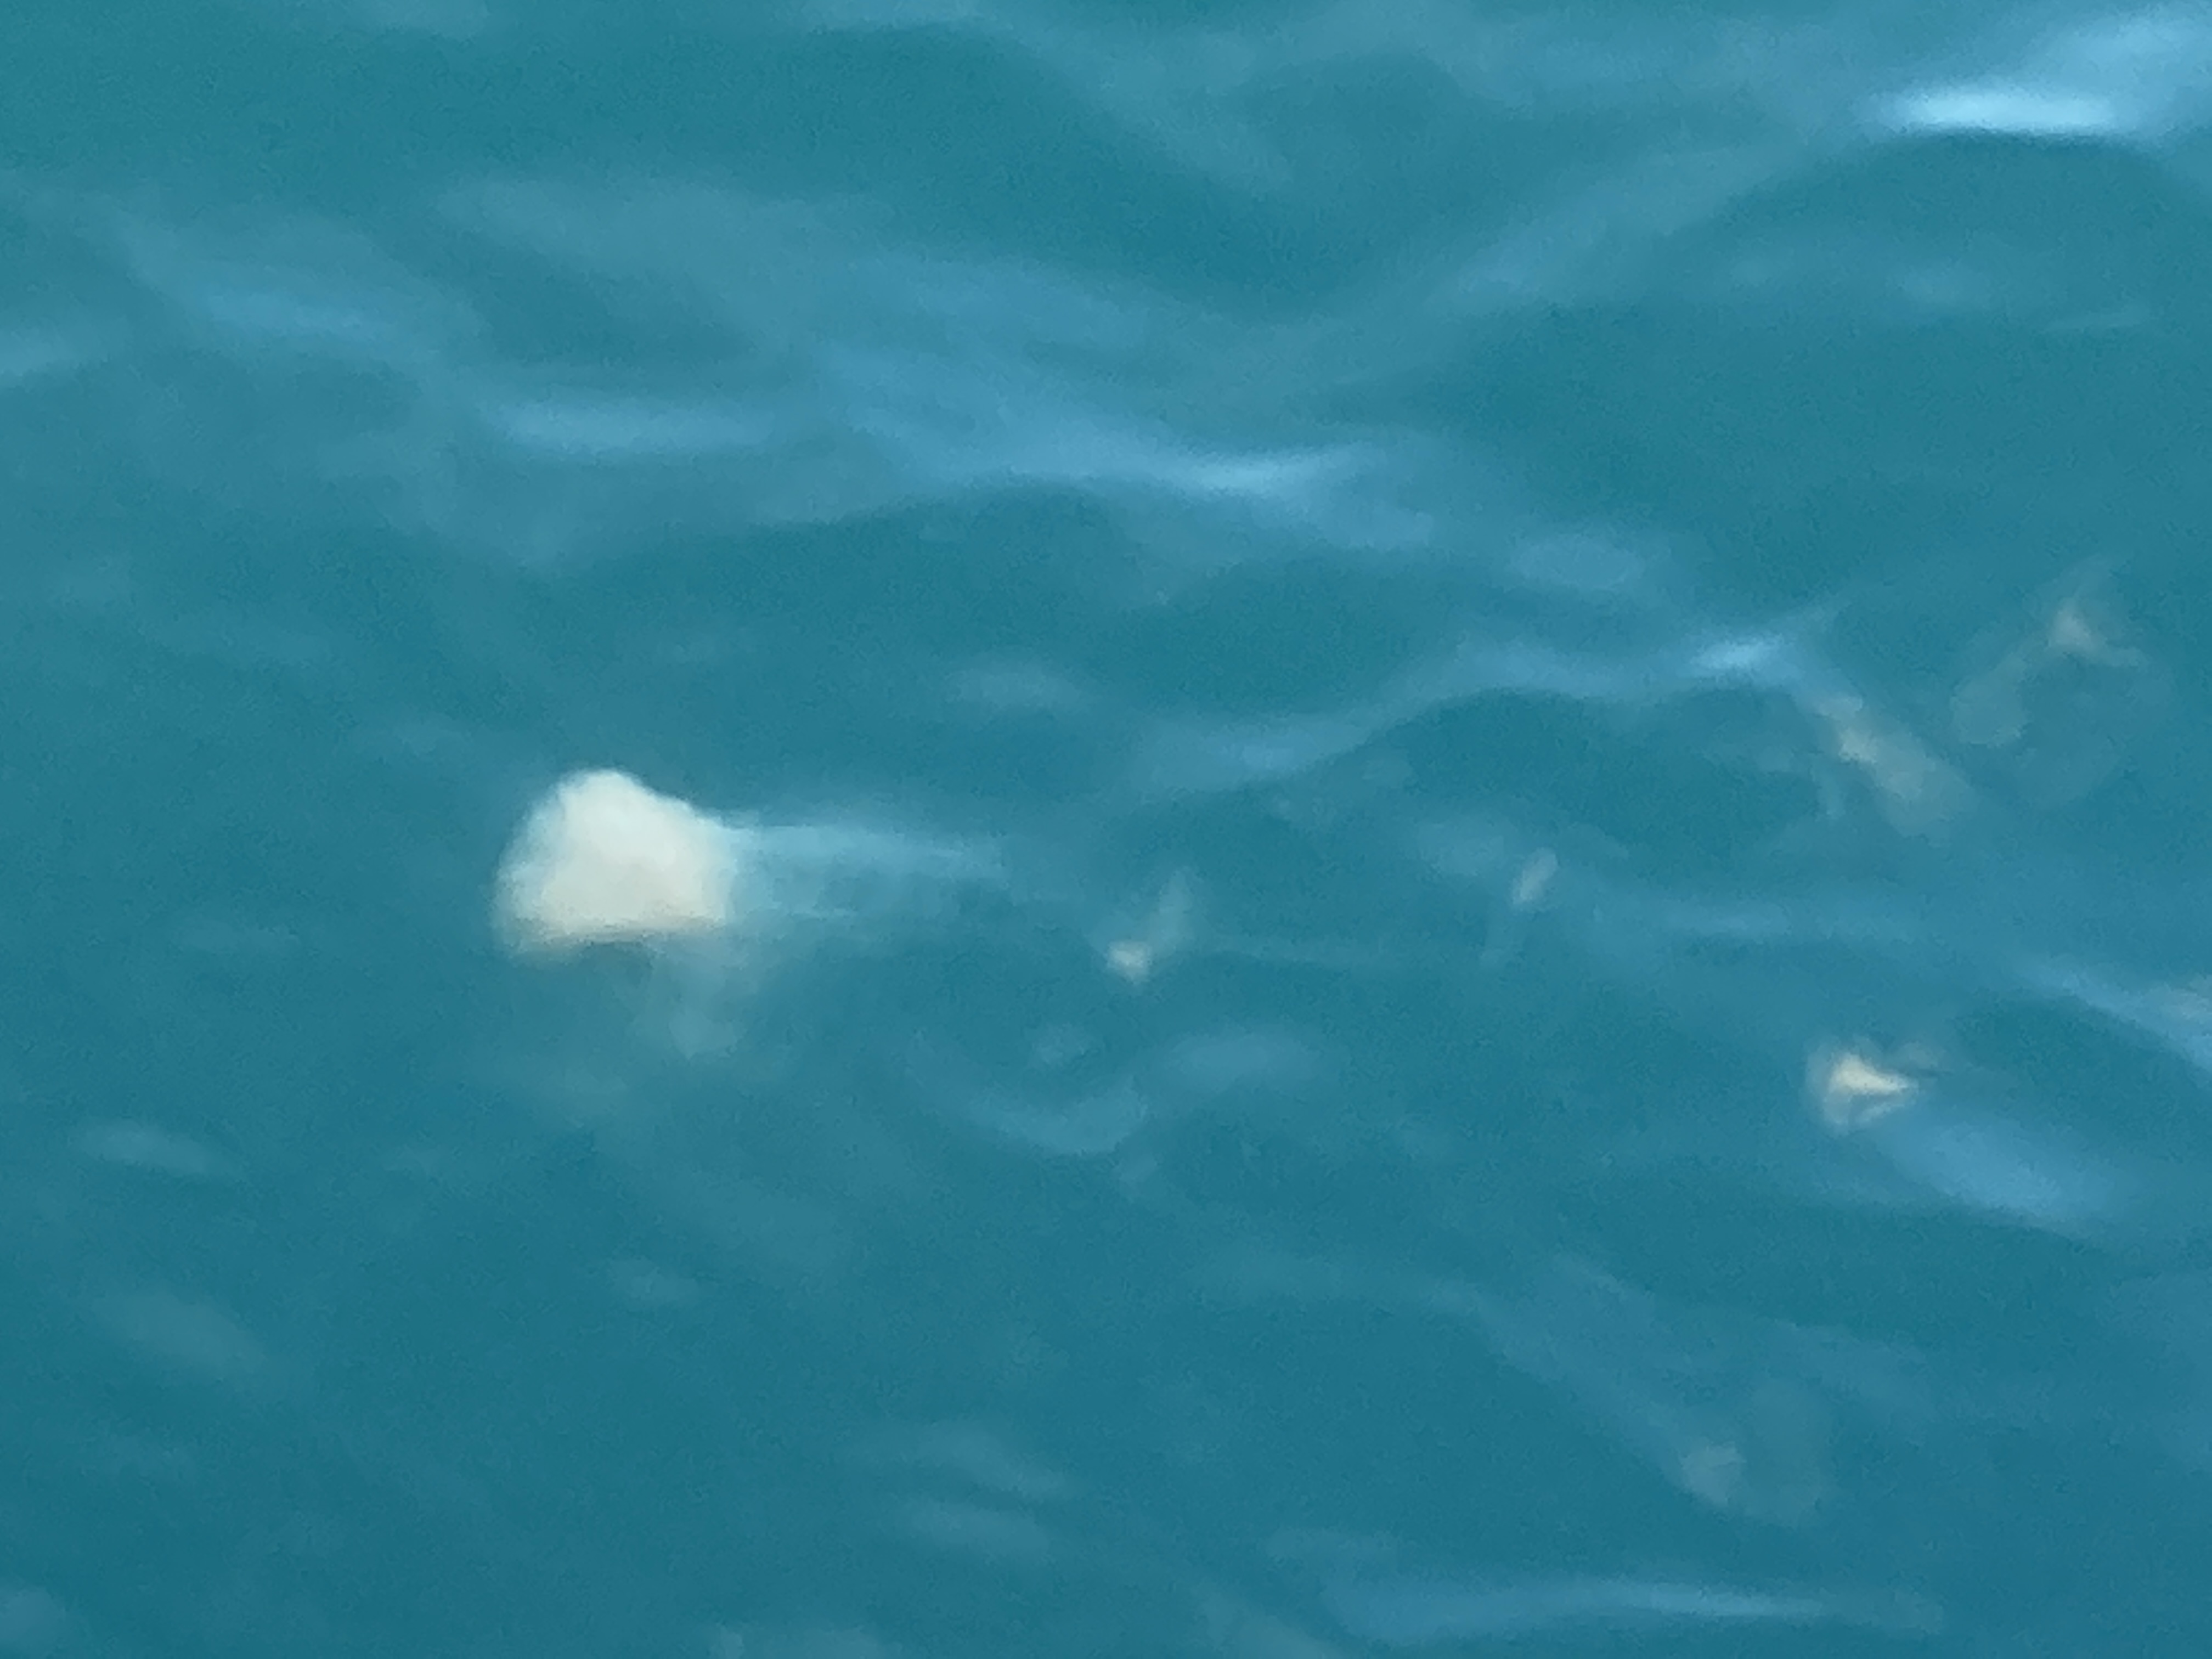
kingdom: Animalia
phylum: Cnidaria
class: Scyphozoa
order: Semaeostomeae
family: Cyaneidae
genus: Cyanea
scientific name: Cyanea nozakii
